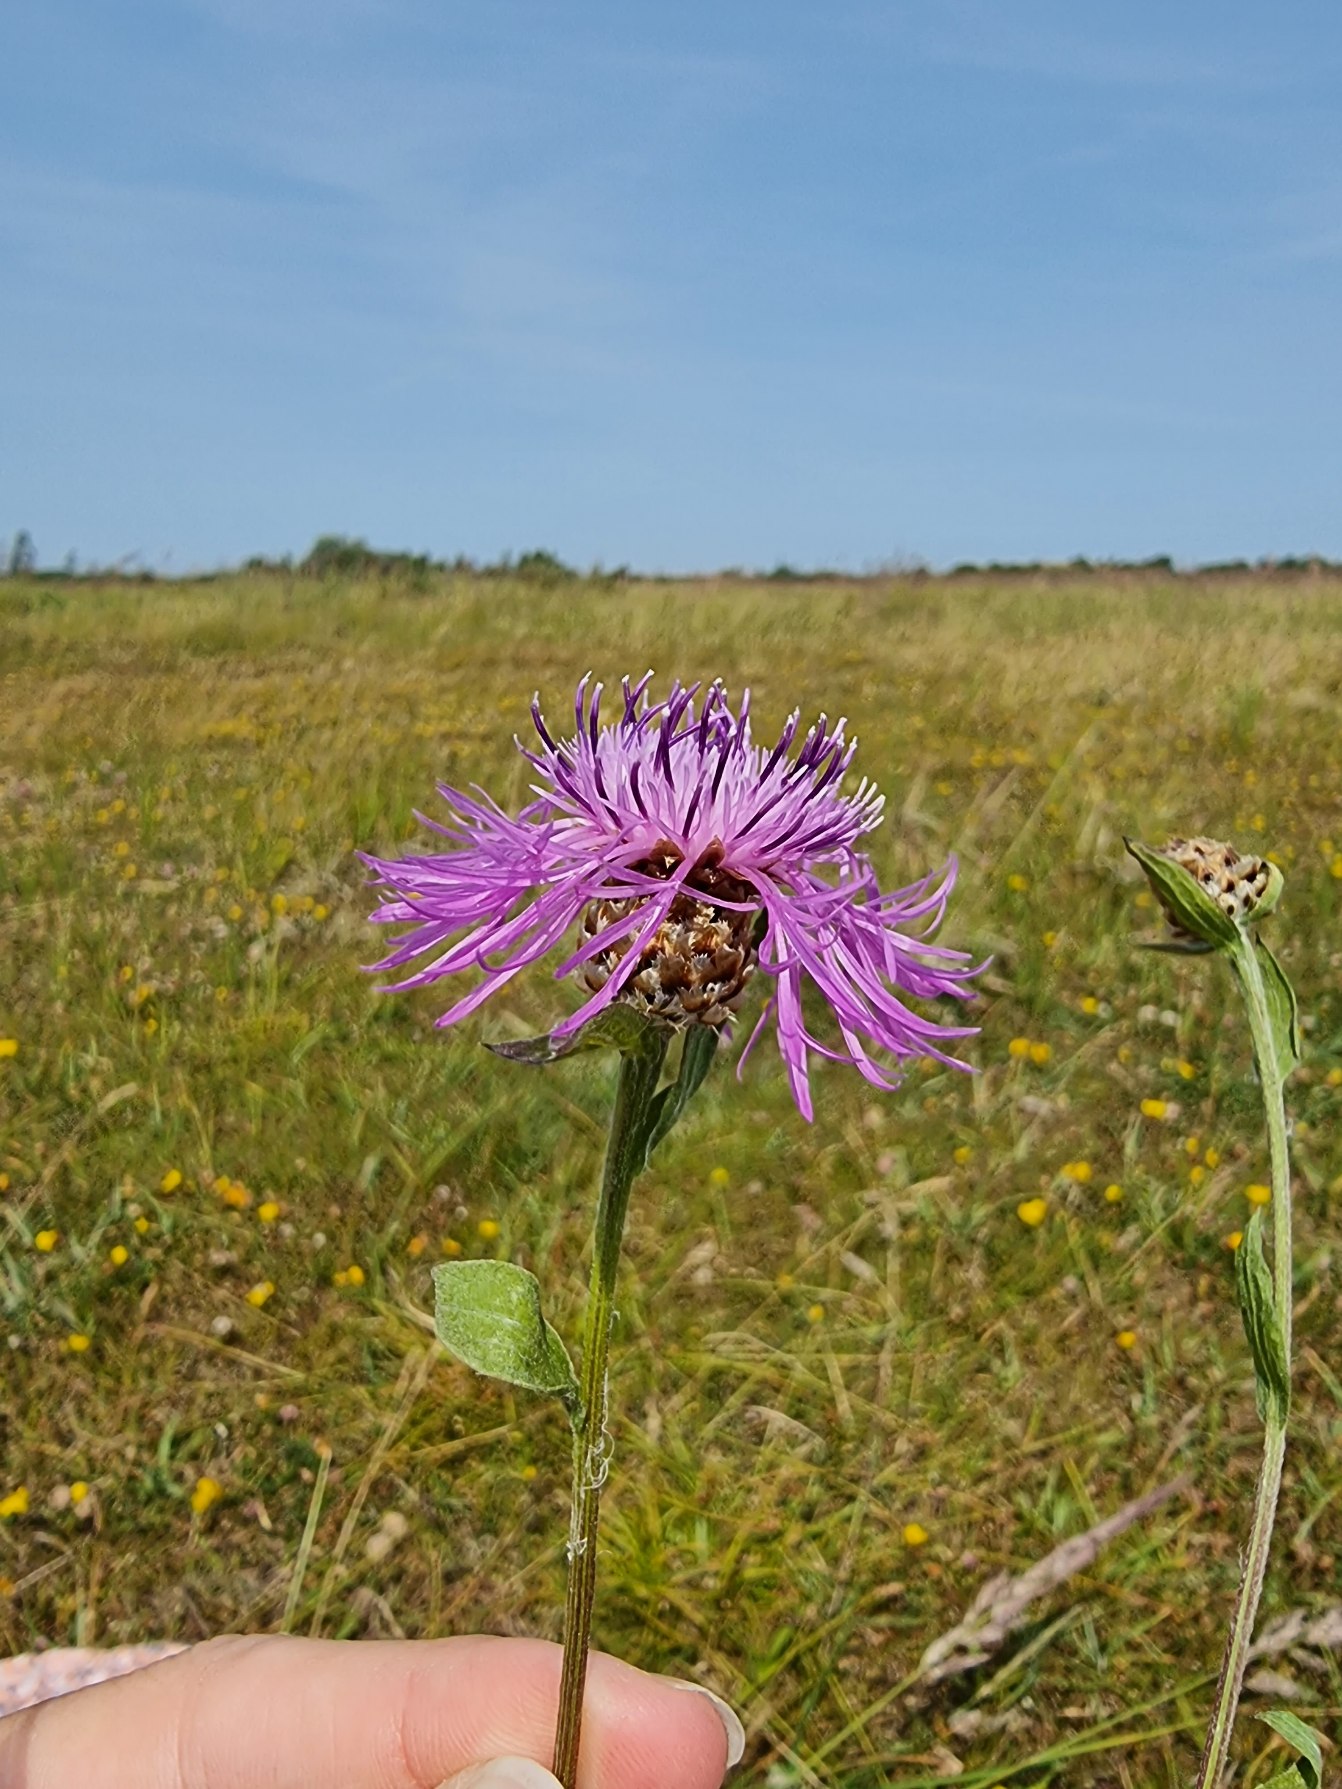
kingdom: Plantae
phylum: Tracheophyta
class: Magnoliopsida
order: Asterales
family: Asteraceae
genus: Centaurea
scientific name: Centaurea jacea
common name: Almindelig knopurt
